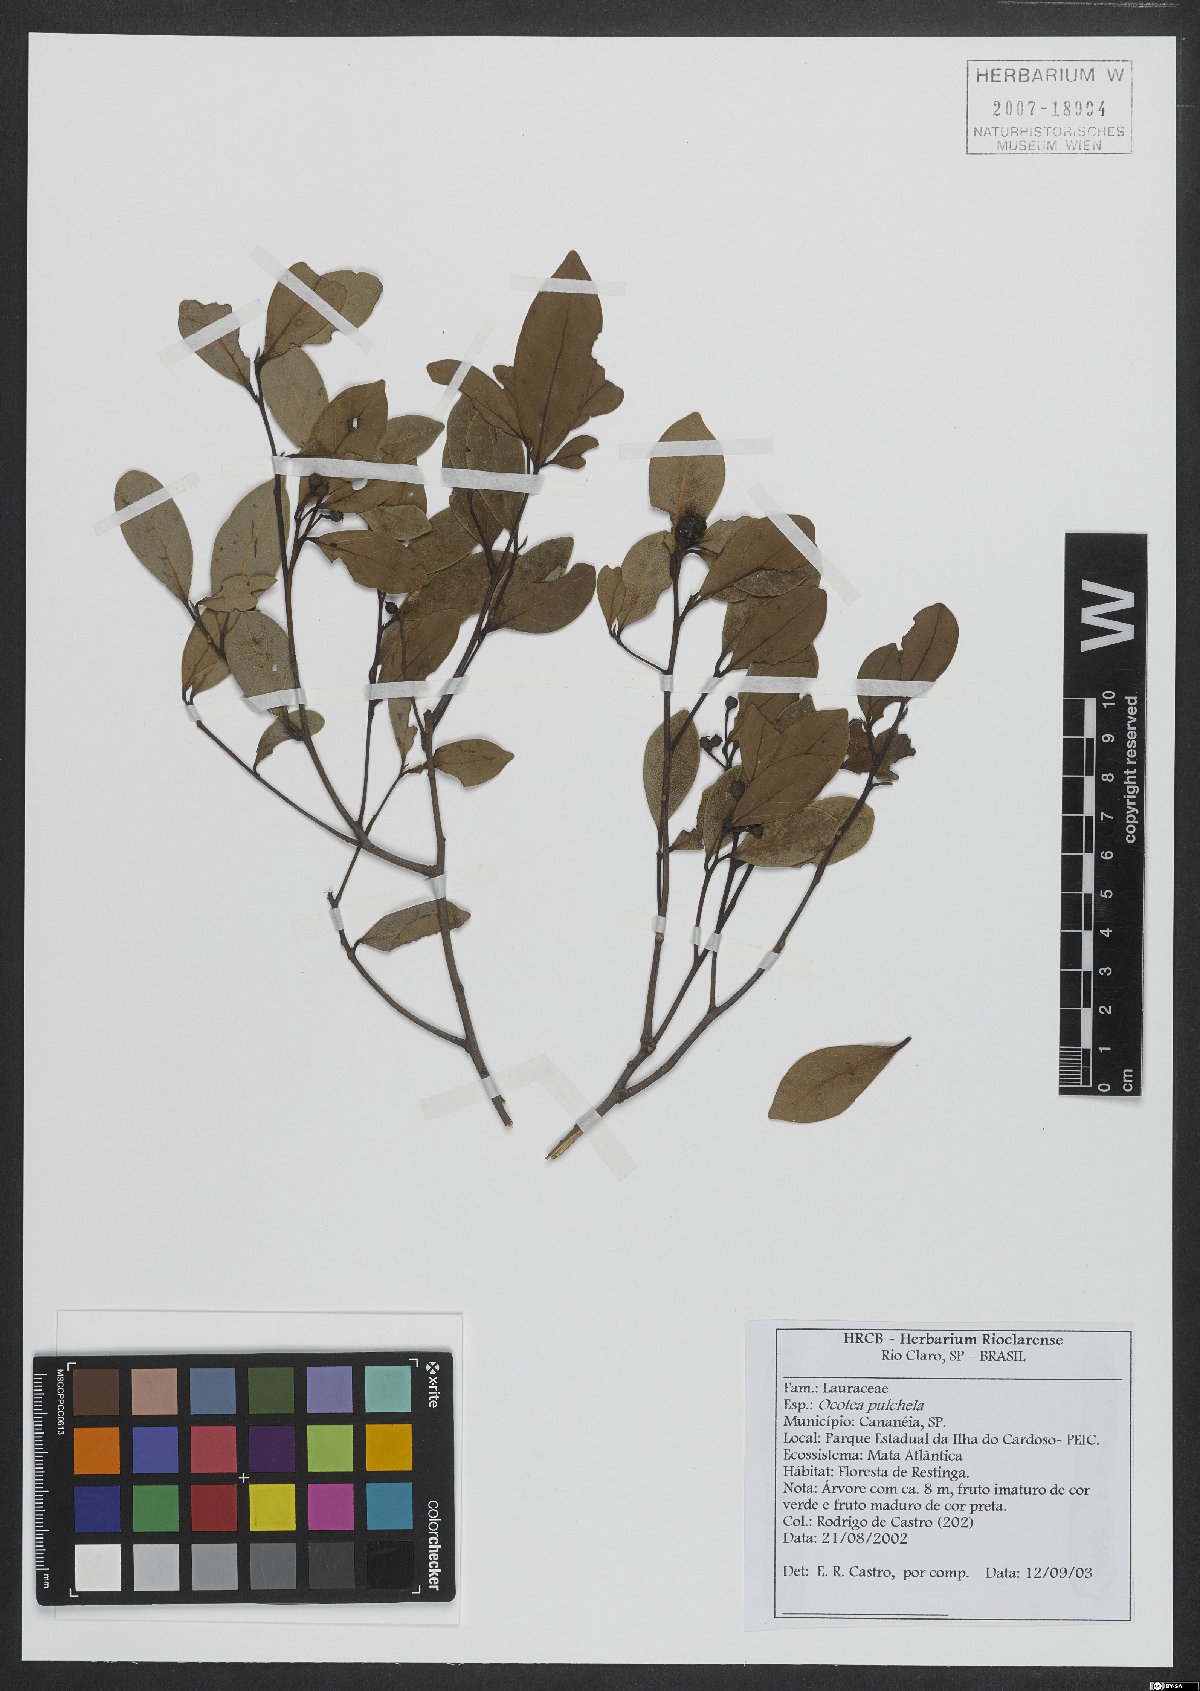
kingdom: Plantae
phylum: Tracheophyta
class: Magnoliopsida
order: Laurales
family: Lauraceae
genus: Mespilodaphne
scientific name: Mespilodaphne pulchella
